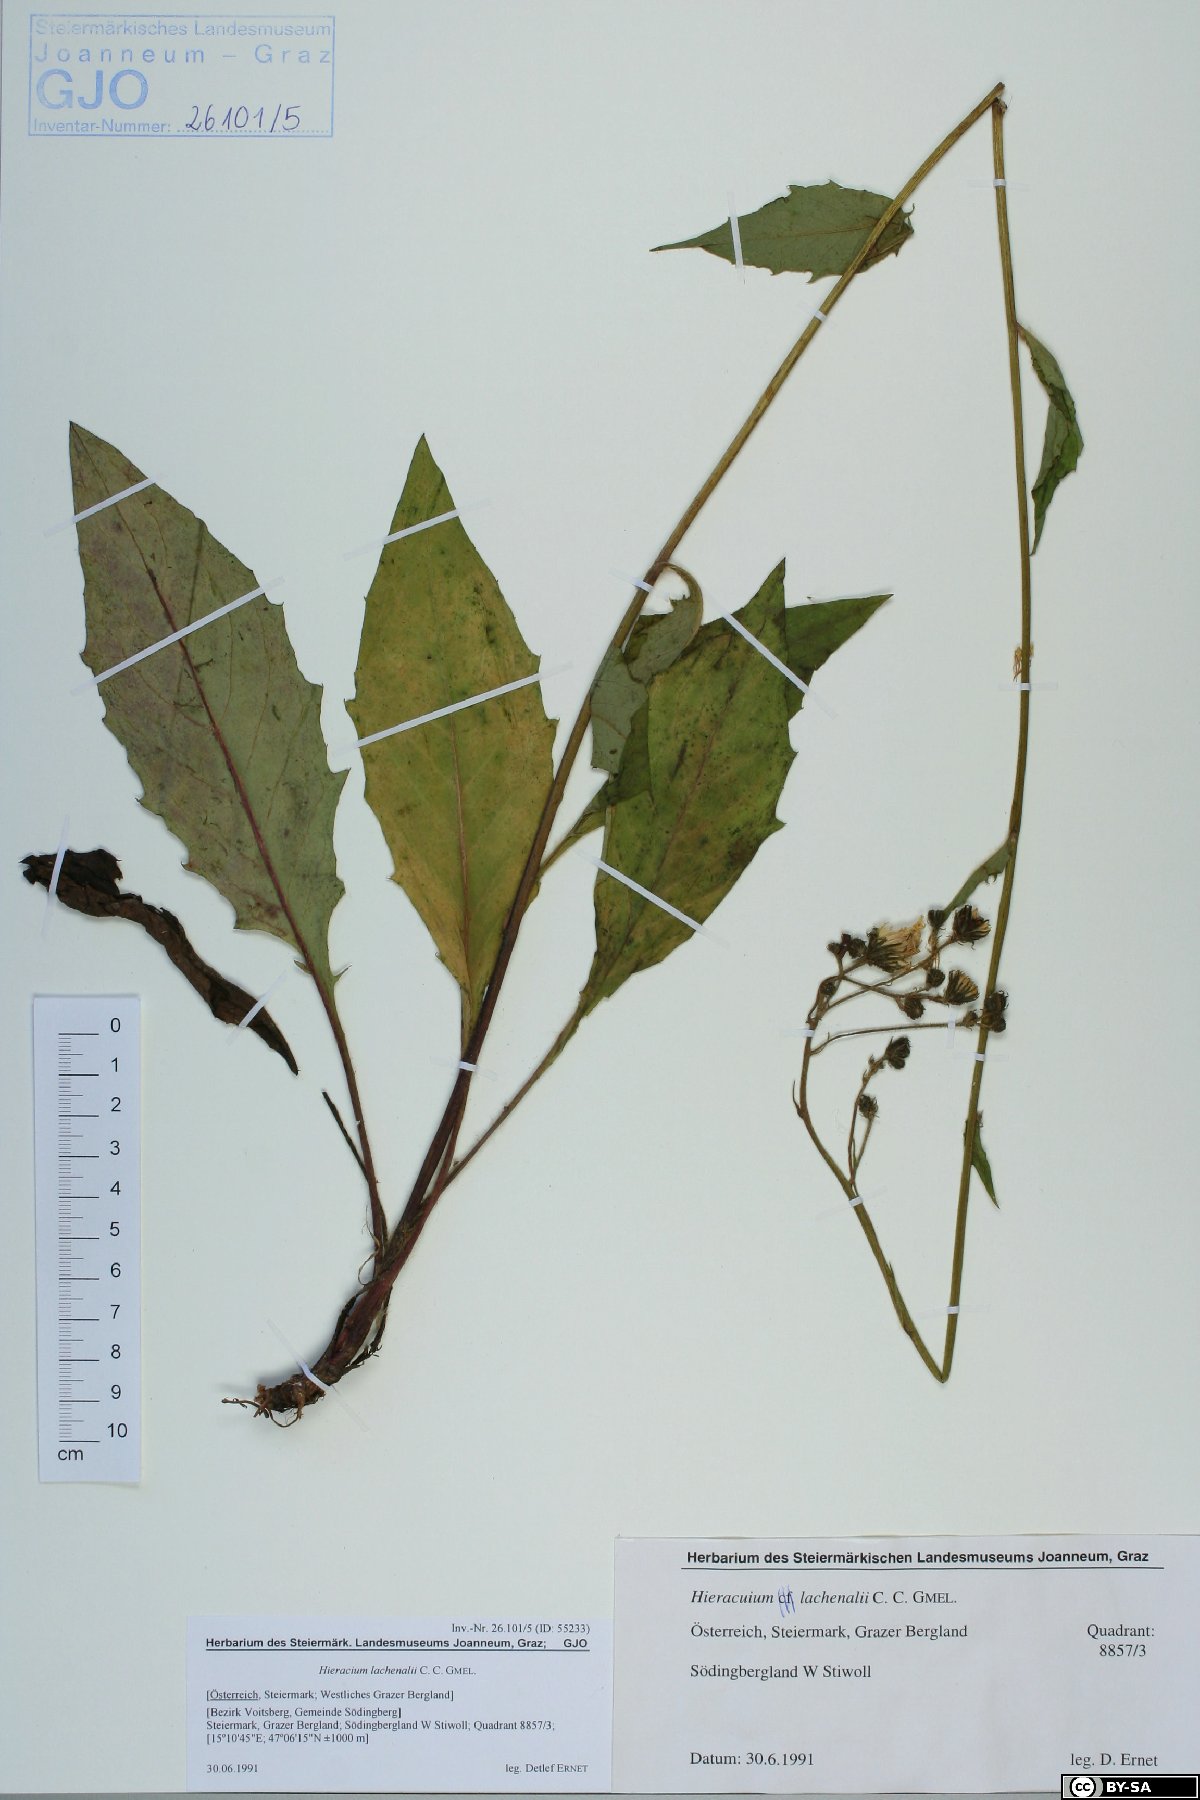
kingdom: Plantae
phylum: Tracheophyta
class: Magnoliopsida
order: Asterales
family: Asteraceae
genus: Hieracium
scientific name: Hieracium lachenalii
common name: Common hawkweed
